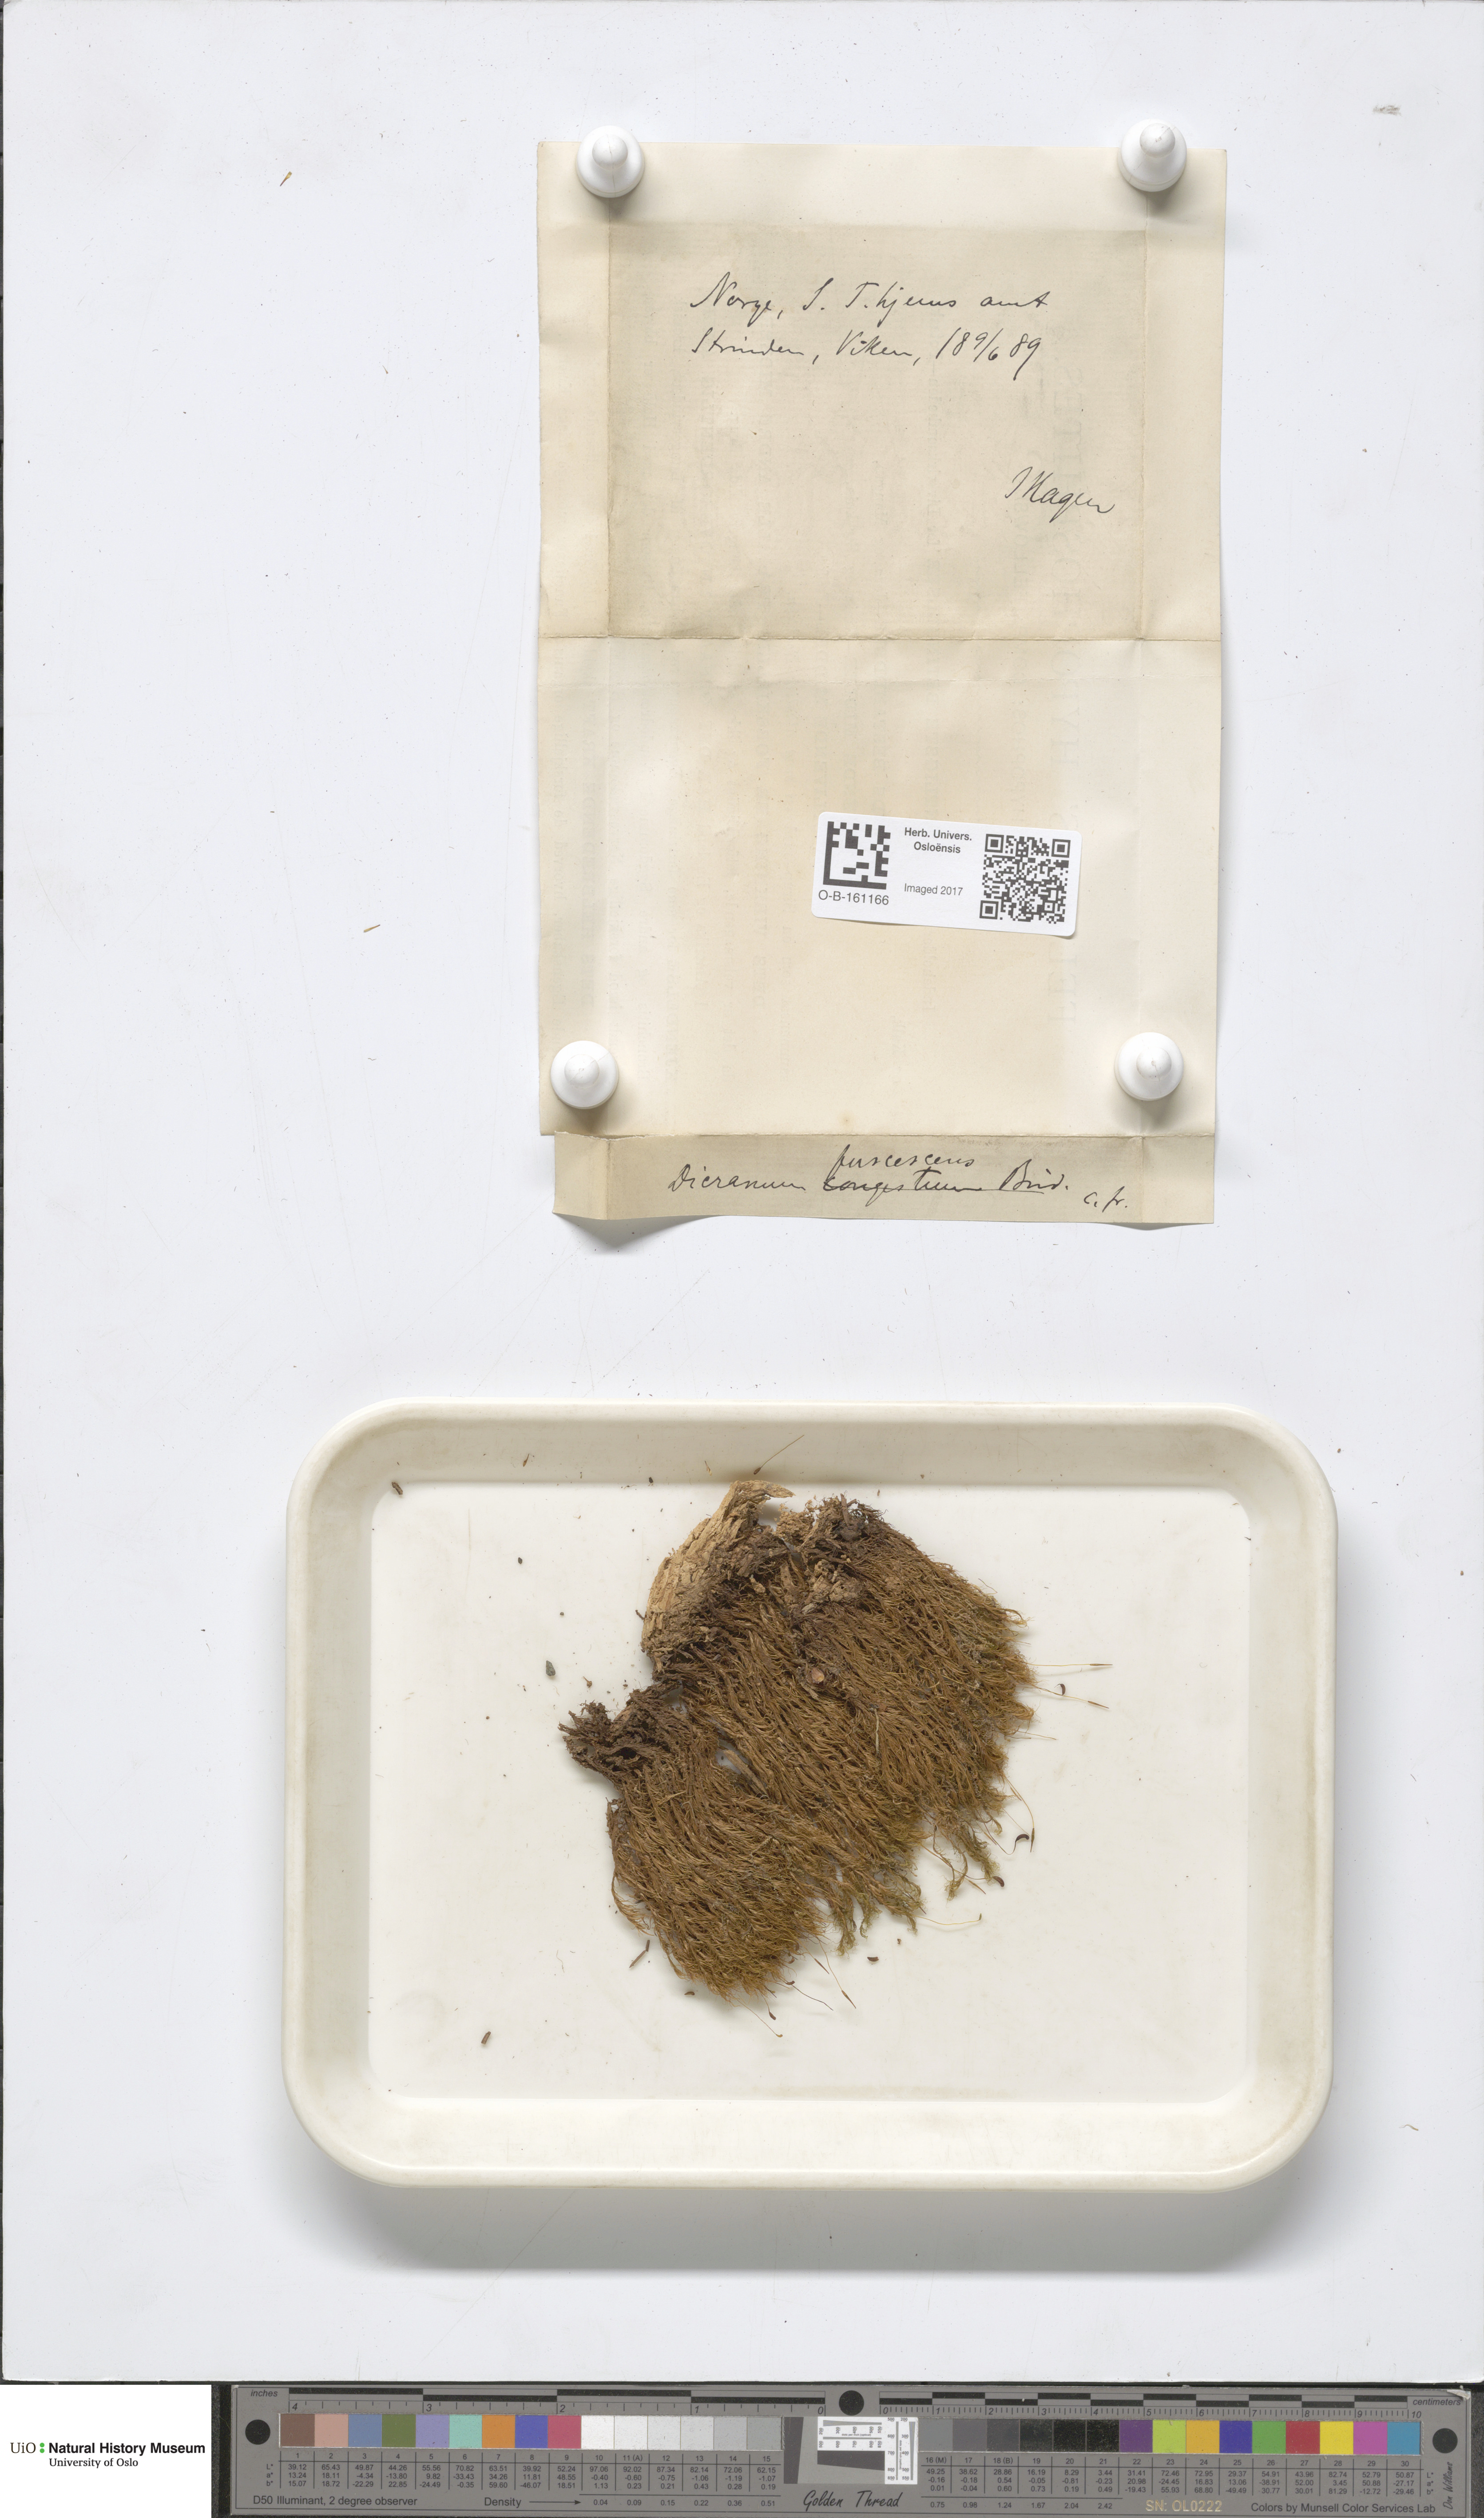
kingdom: Plantae
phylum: Bryophyta
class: Bryopsida
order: Dicranales
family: Dicranaceae
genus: Dicranum
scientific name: Dicranum fuscescens
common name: Curly heron's-bill moss
